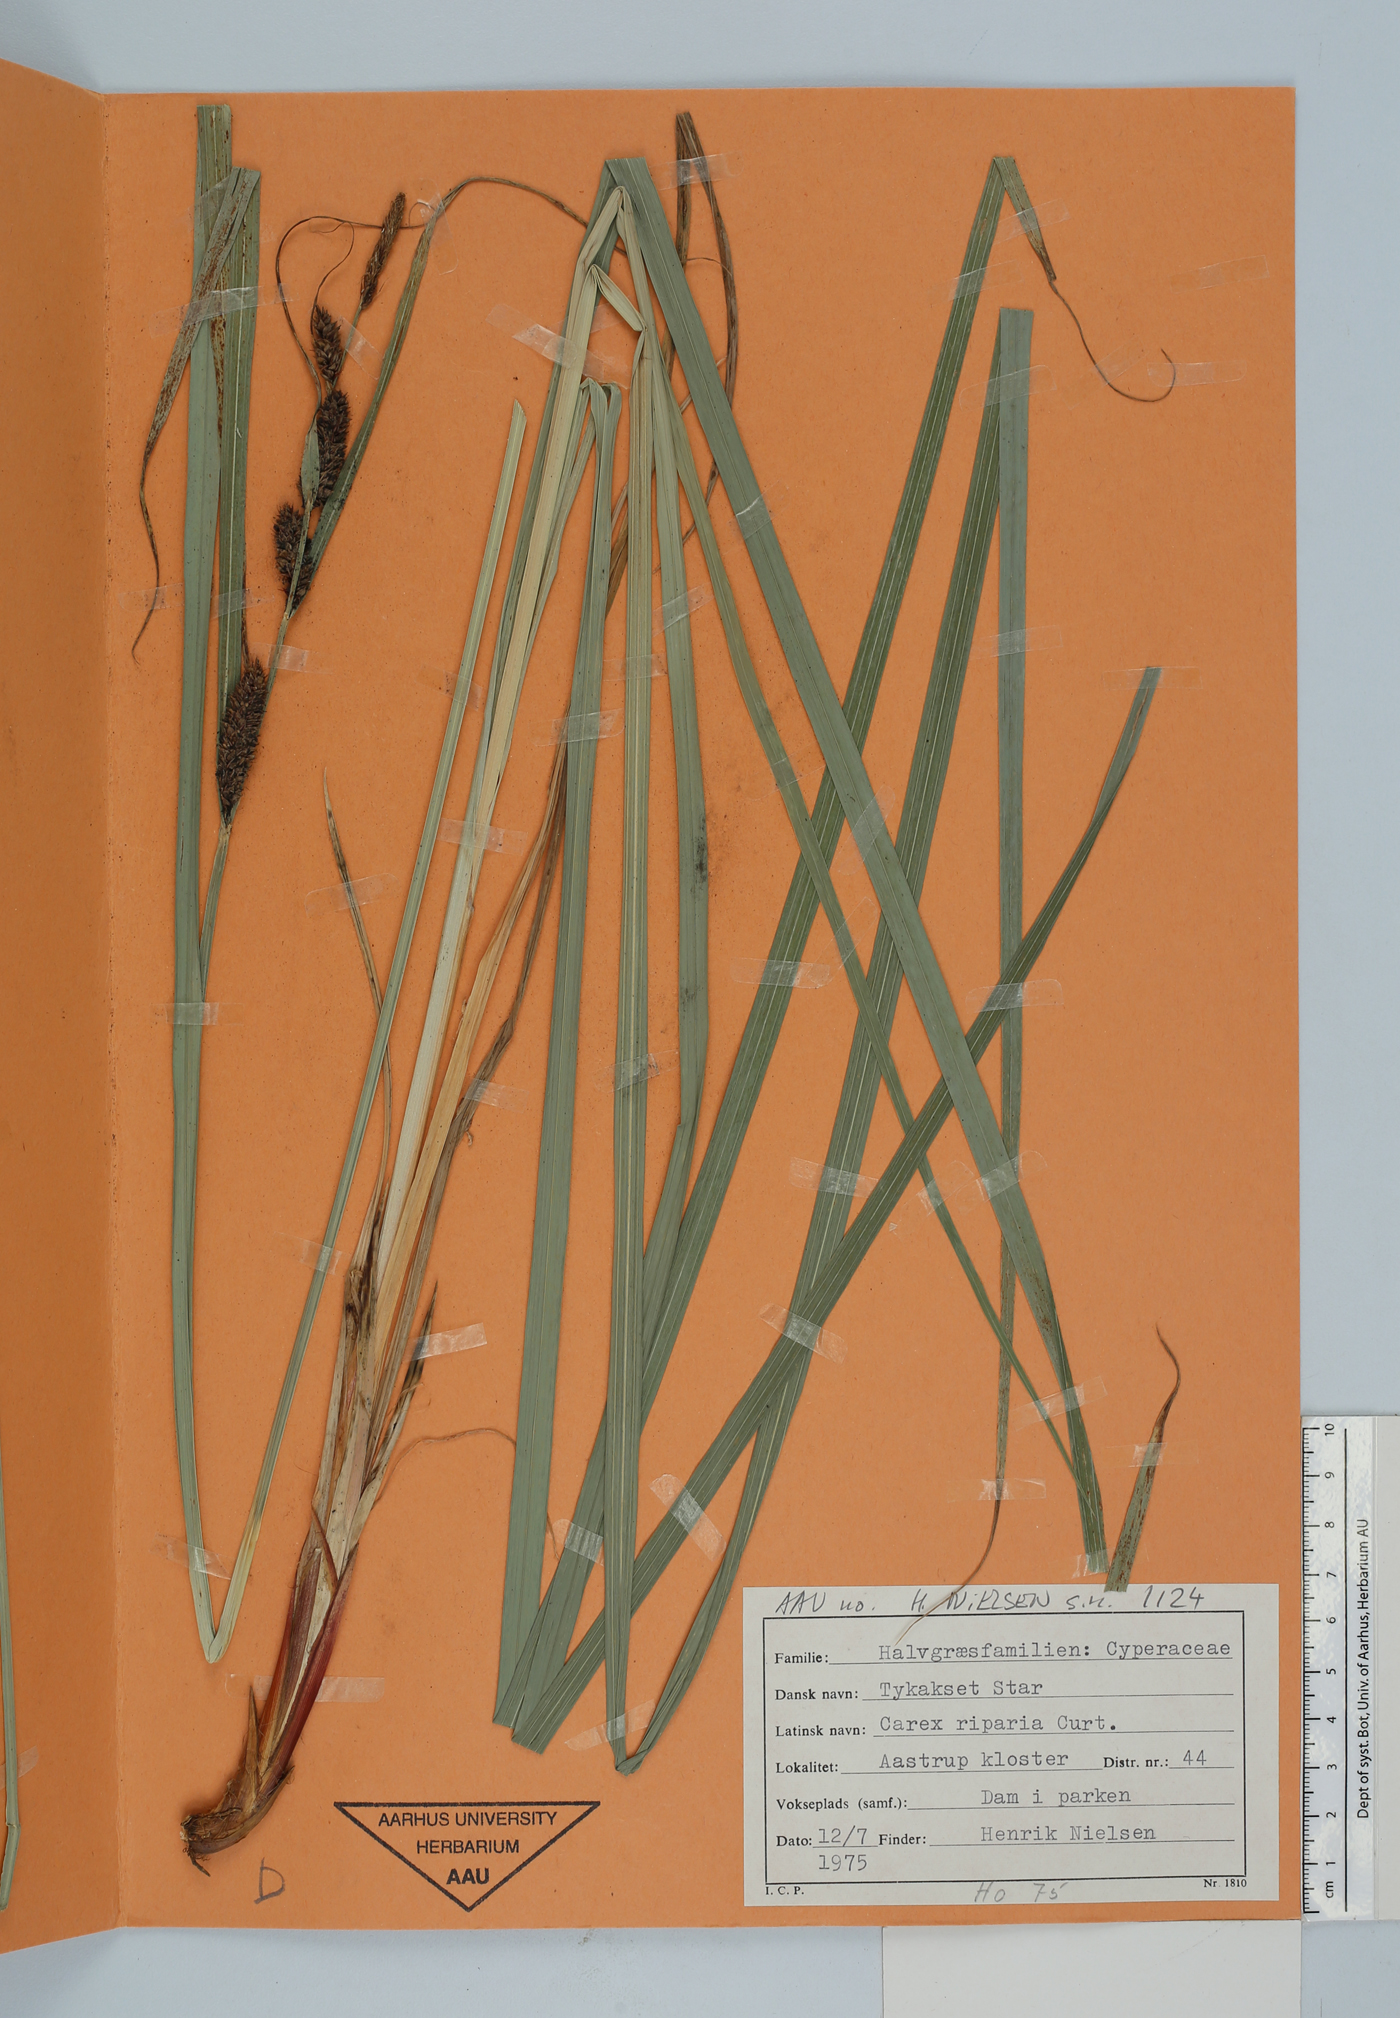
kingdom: Plantae
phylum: Tracheophyta
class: Liliopsida
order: Poales
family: Cyperaceae
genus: Carex
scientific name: Carex riparia
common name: Greater pond-sedge
